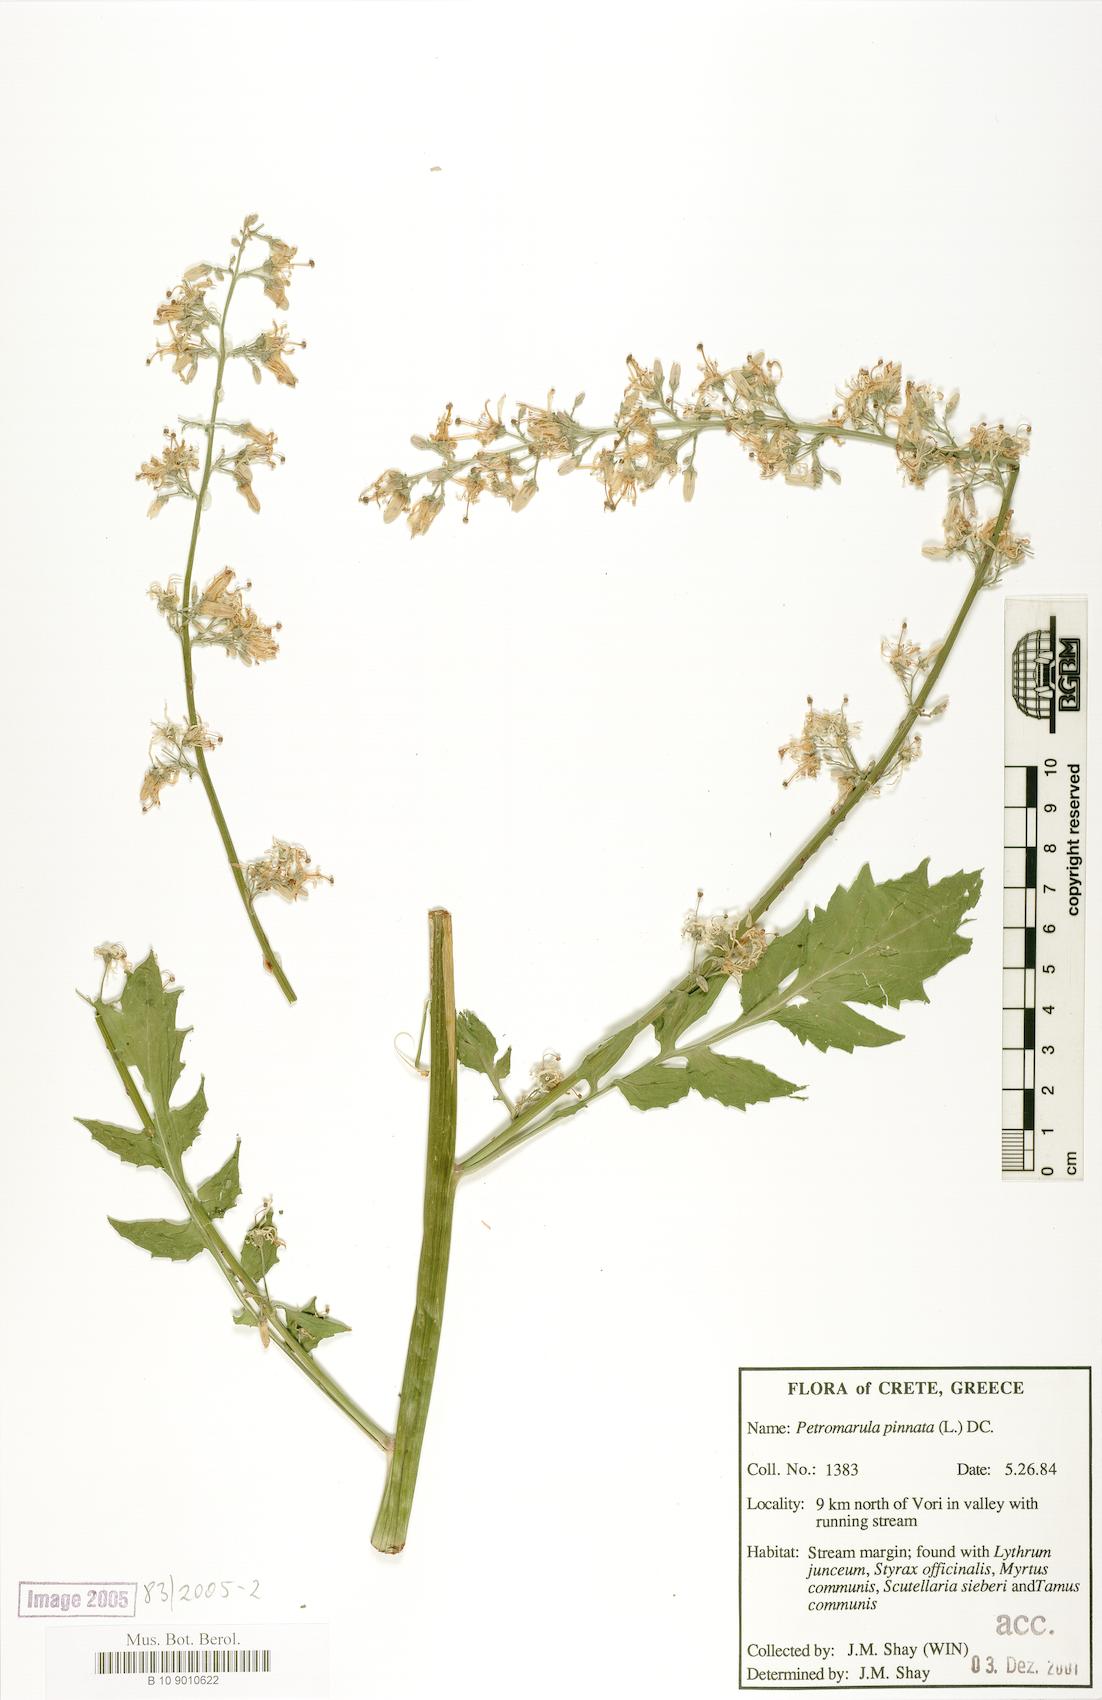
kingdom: Plantae
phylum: Tracheophyta
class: Magnoliopsida
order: Asterales
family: Campanulaceae
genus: Petromarula
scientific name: Petromarula pinnata
